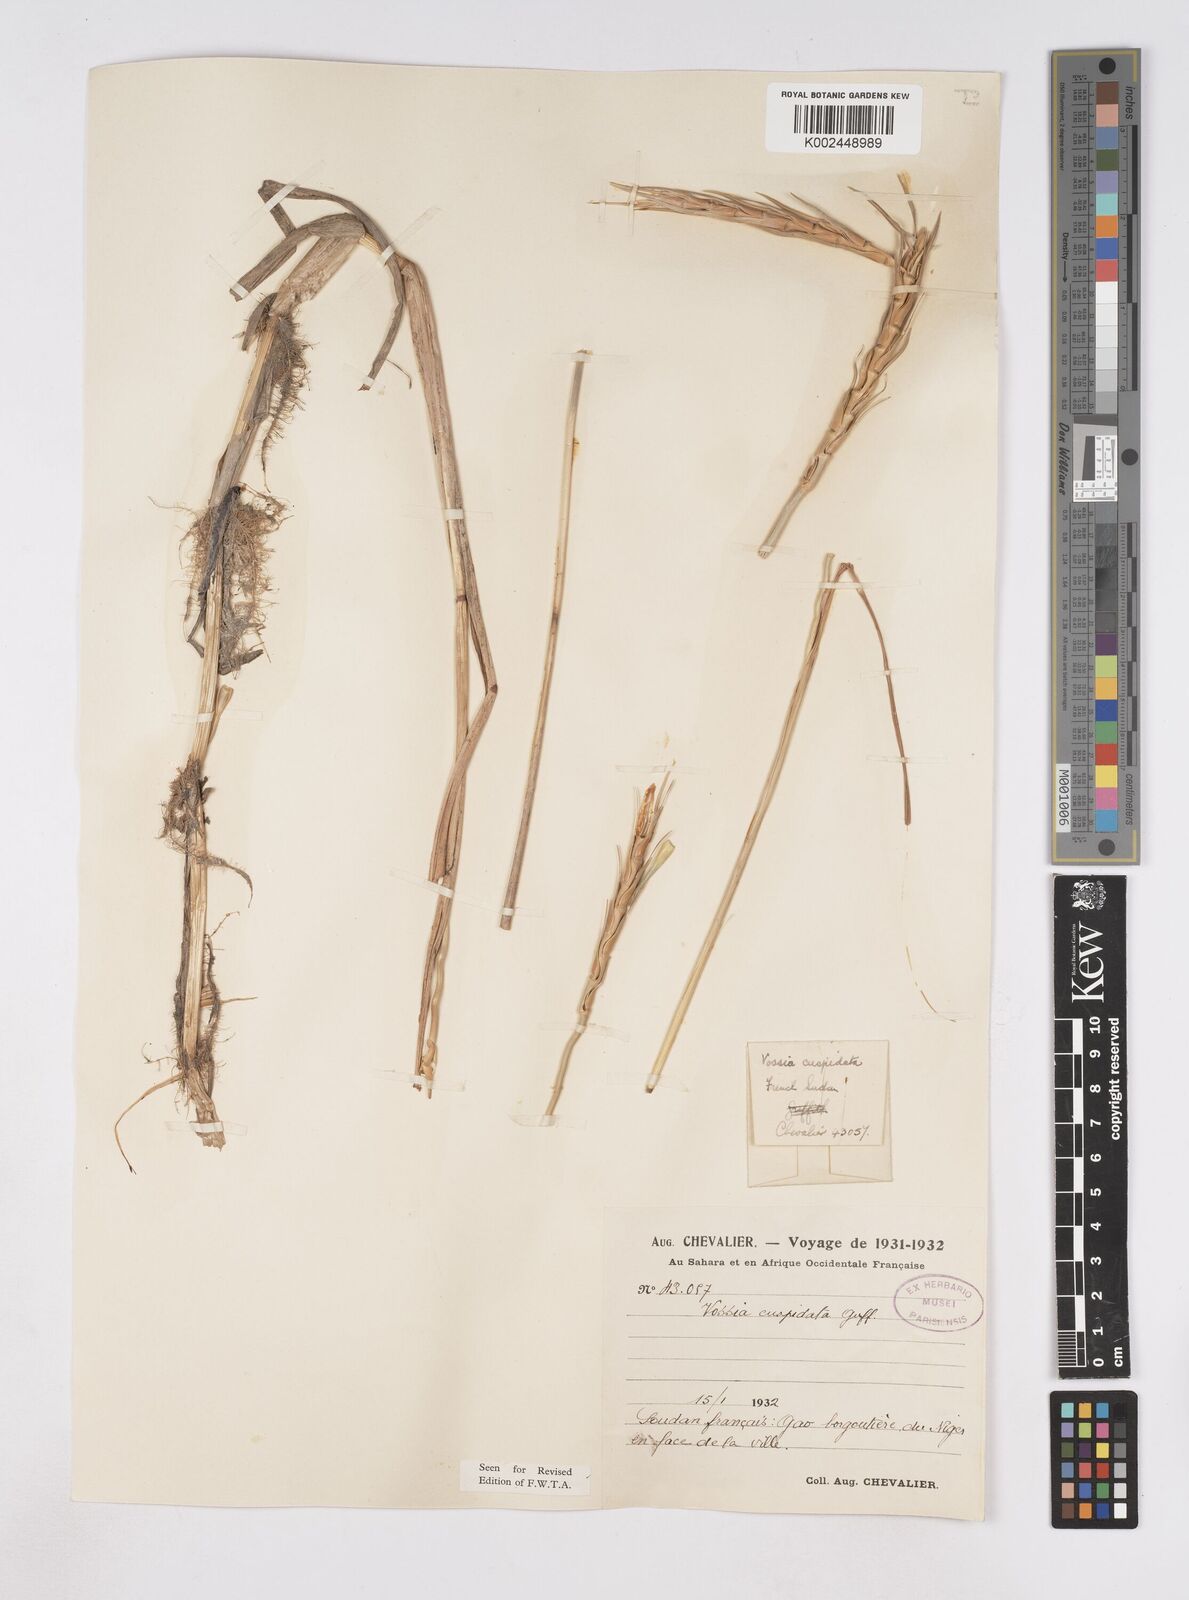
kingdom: Plantae
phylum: Tracheophyta
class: Liliopsida
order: Poales
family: Poaceae
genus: Vossia
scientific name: Vossia cuspidata
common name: Hippo grass
